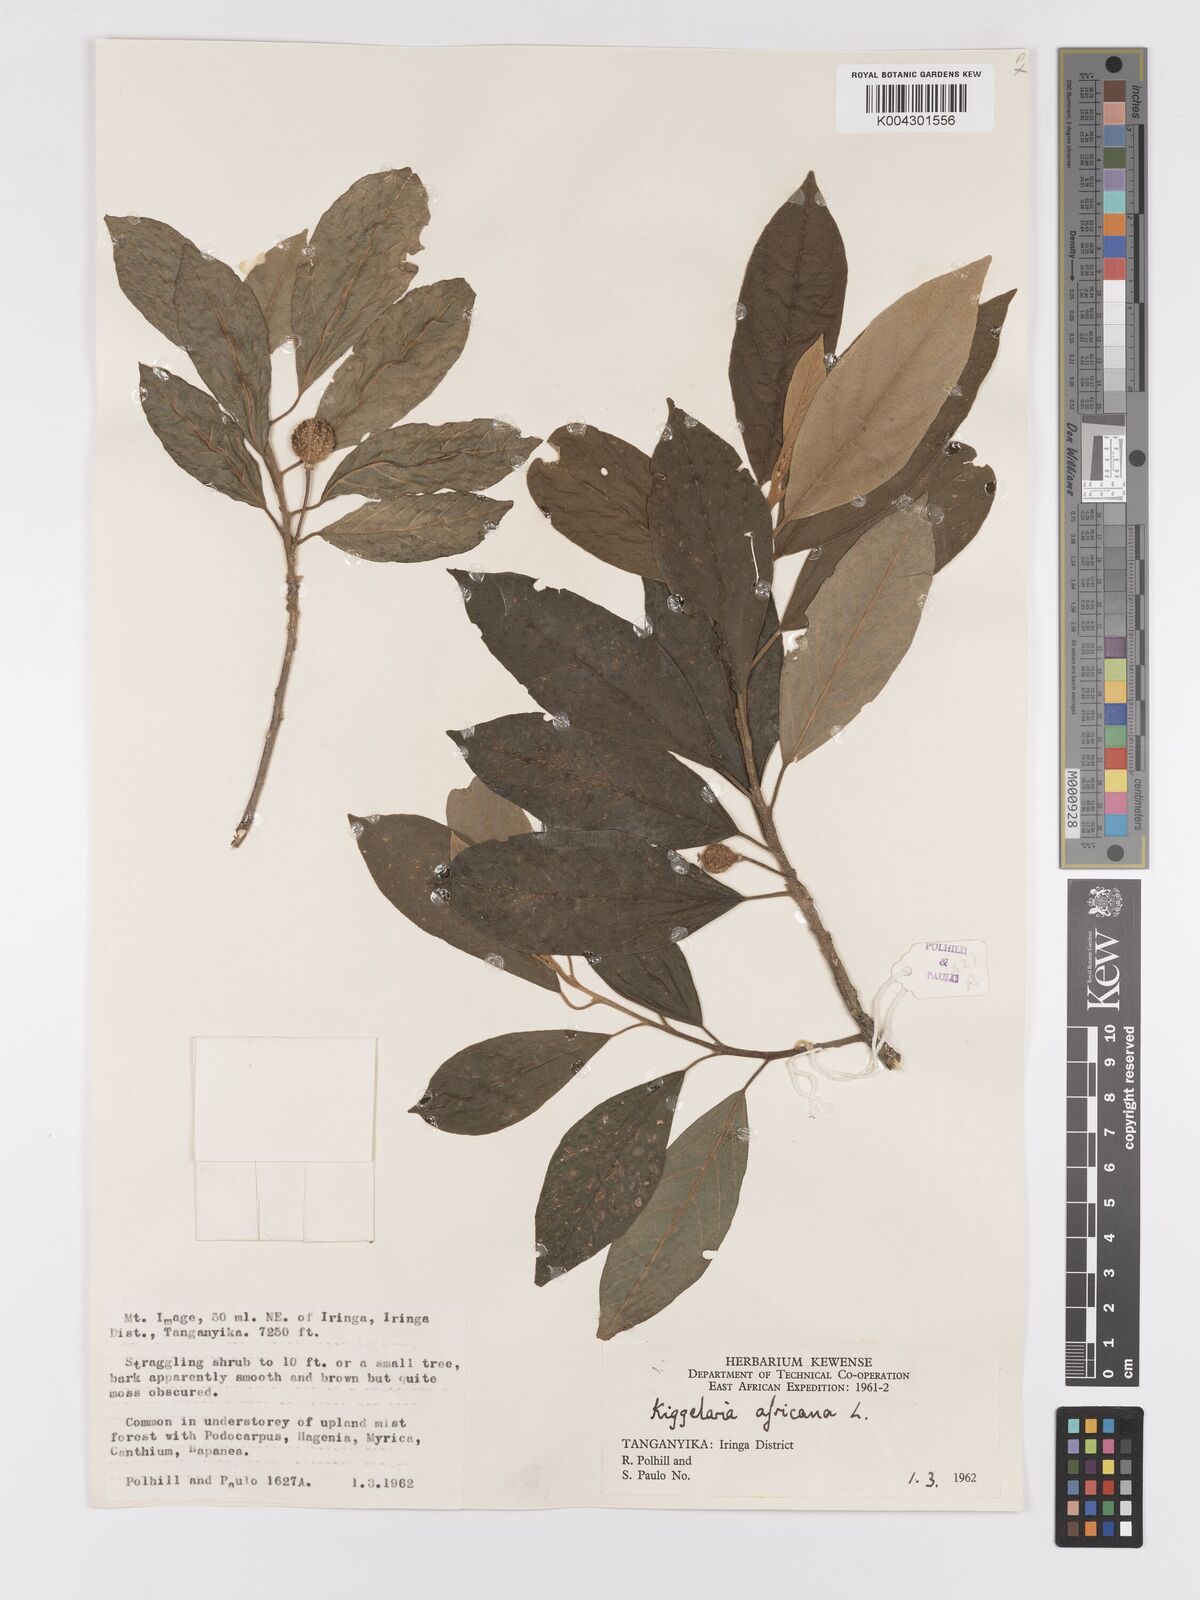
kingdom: Plantae
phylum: Tracheophyta
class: Magnoliopsida
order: Malpighiales
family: Achariaceae
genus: Kiggelaria
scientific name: Kiggelaria africana
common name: Wild peach
